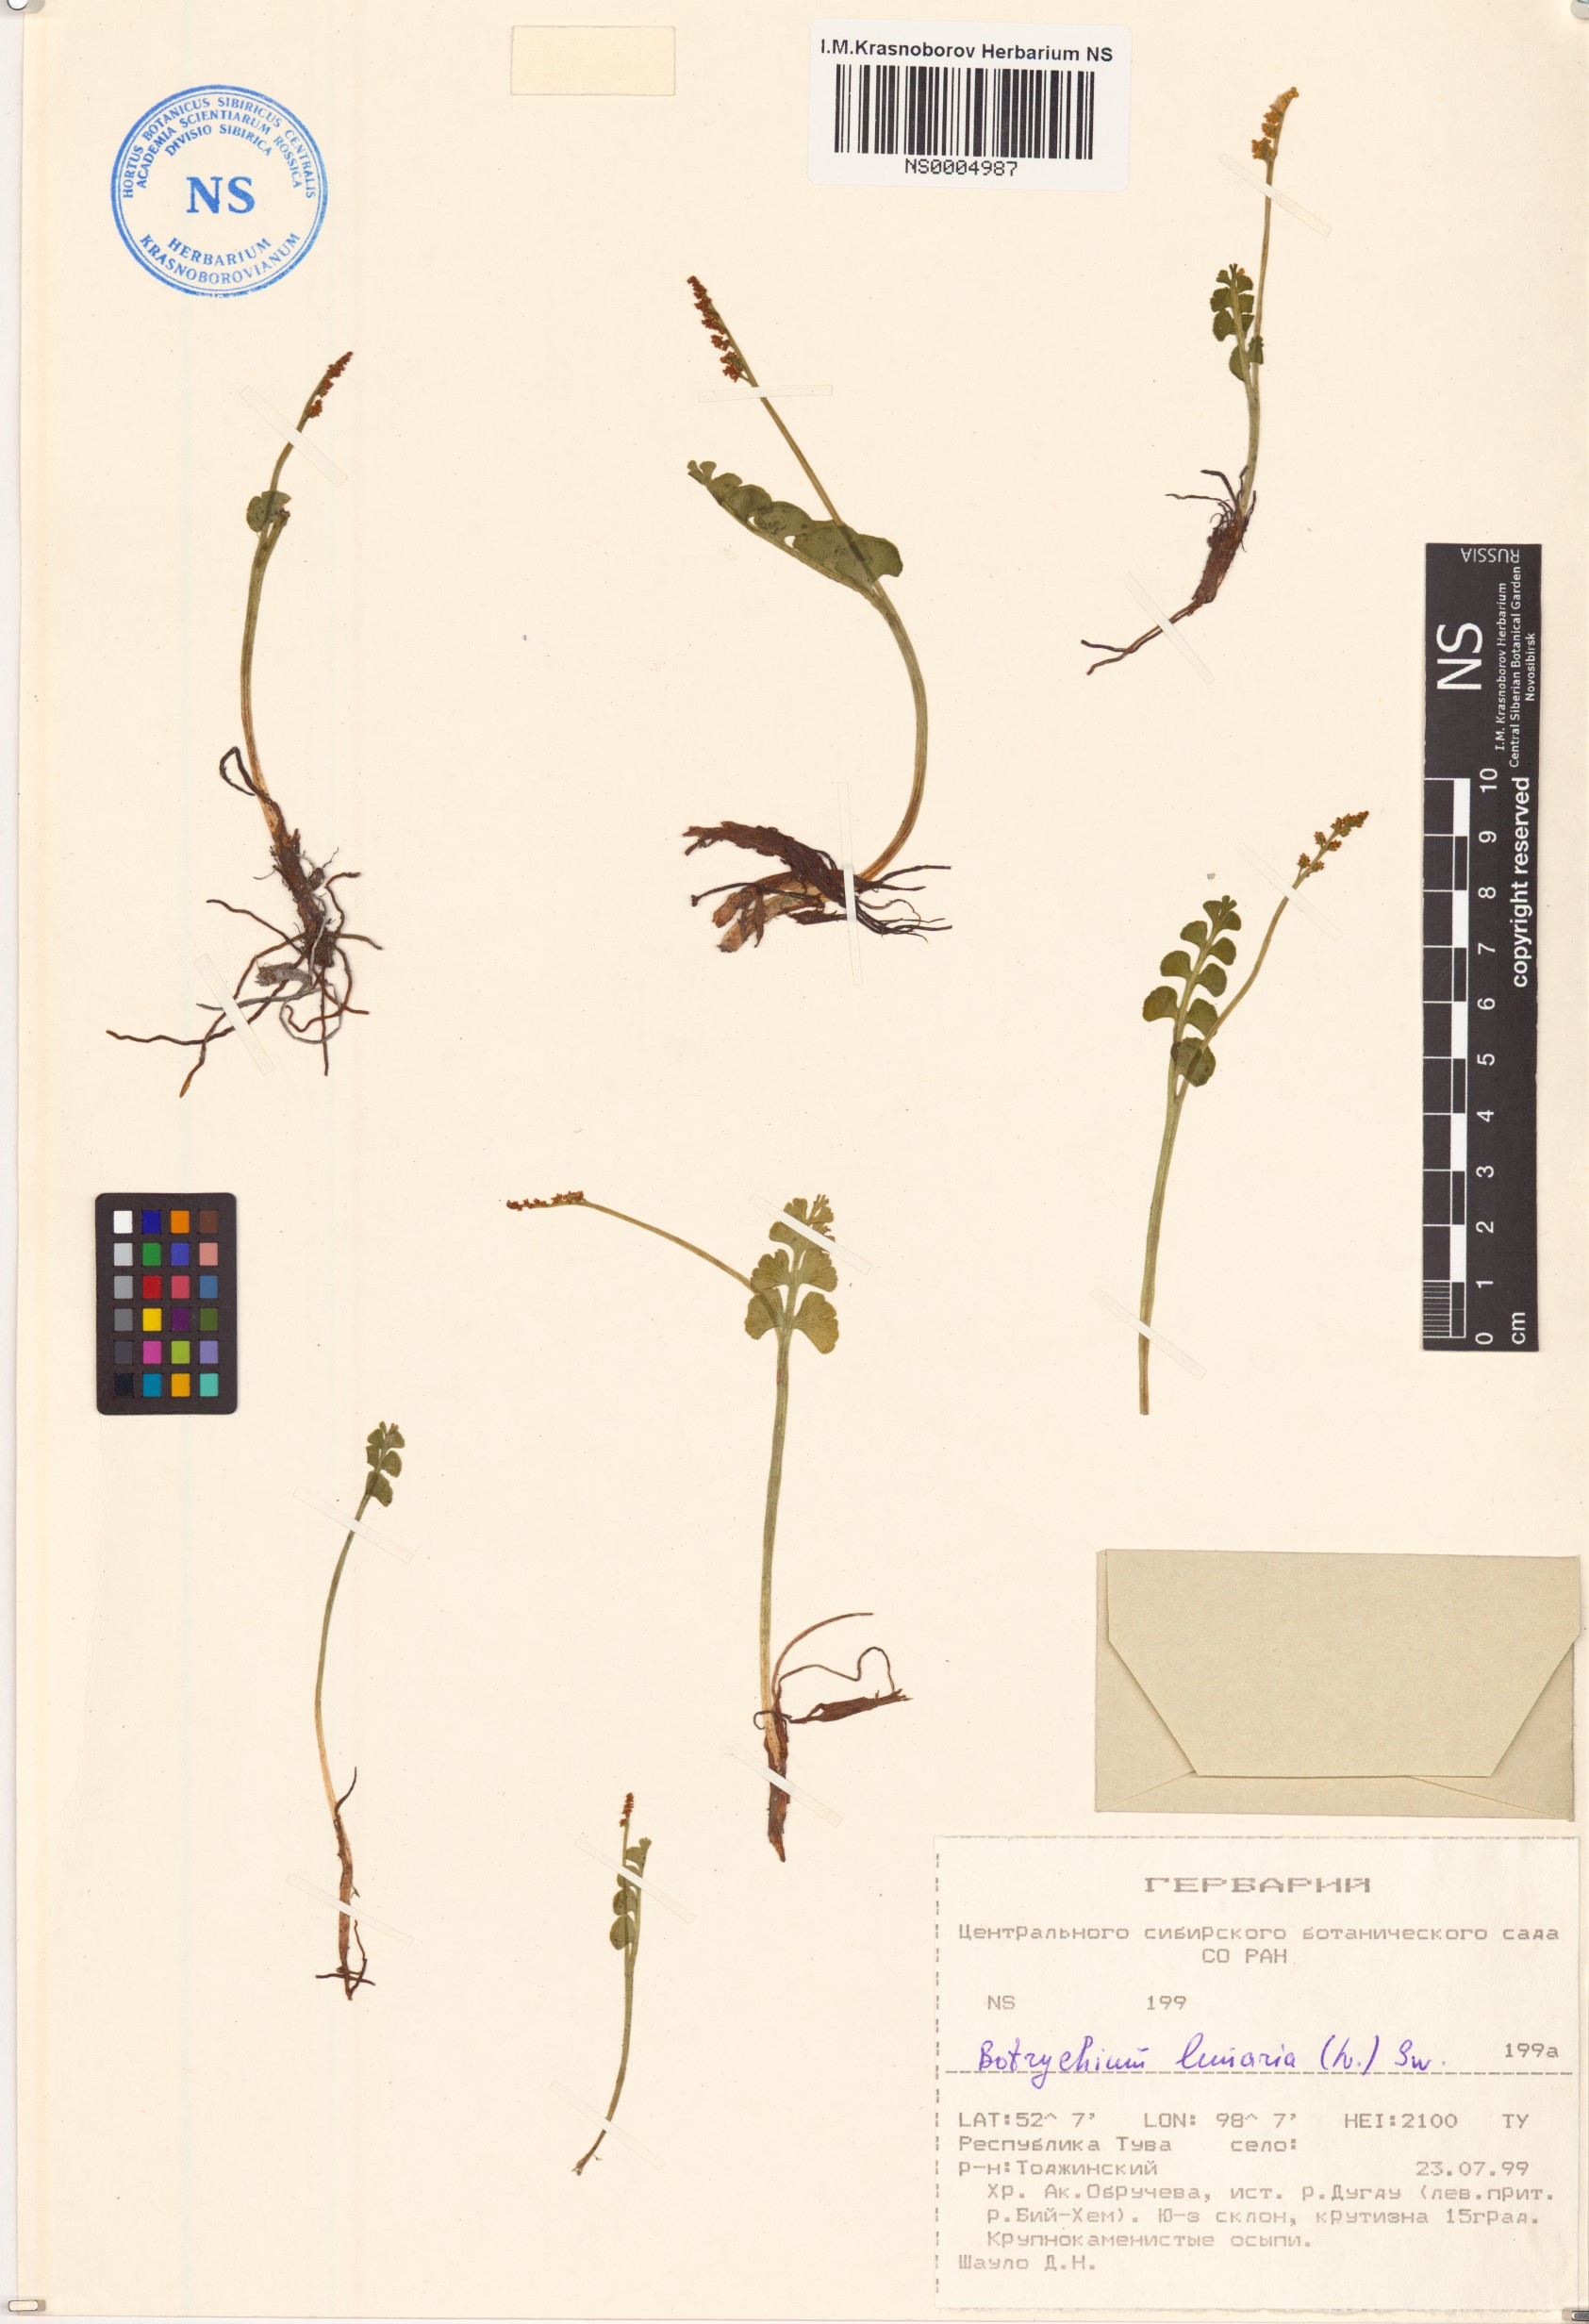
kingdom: Plantae
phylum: Tracheophyta
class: Polypodiopsida
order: Ophioglossales
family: Ophioglossaceae
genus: Botrychium
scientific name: Botrychium lunaria
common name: Moonwort
